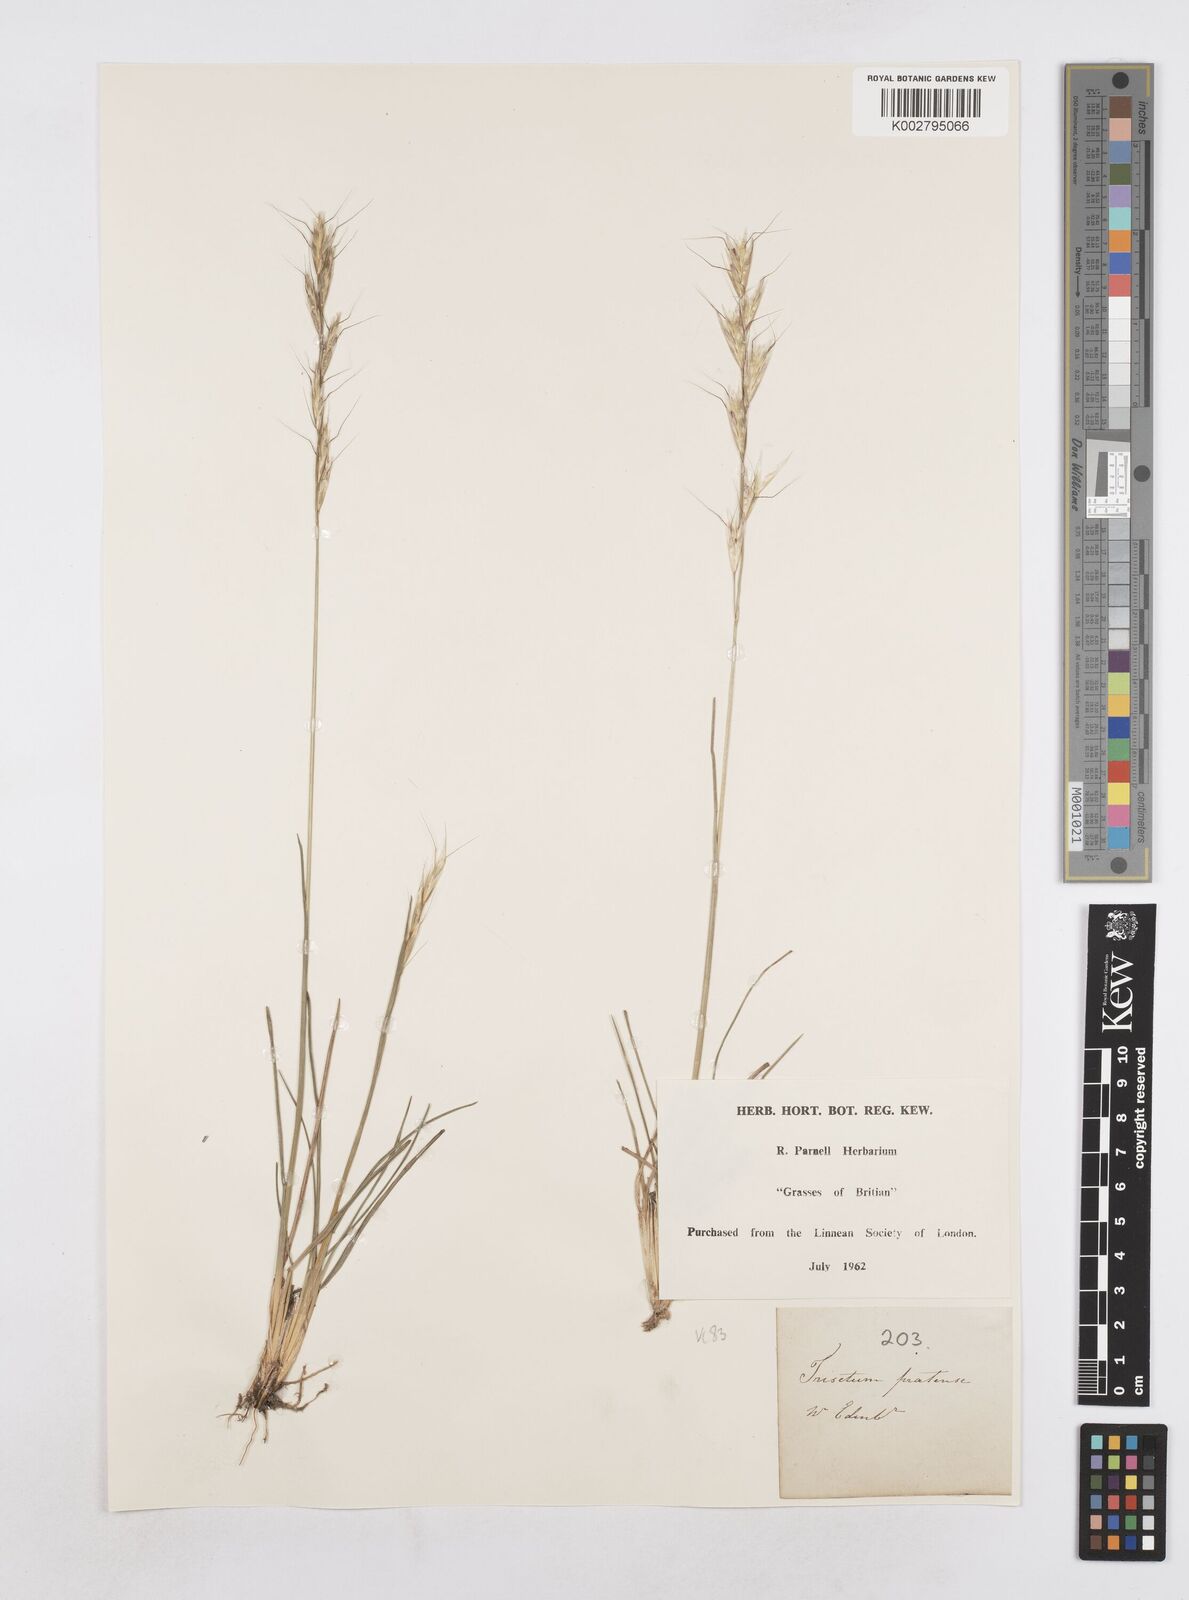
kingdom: Plantae
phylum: Tracheophyta
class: Liliopsida
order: Poales
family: Poaceae
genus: Helictotrichon
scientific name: Helictotrichon
